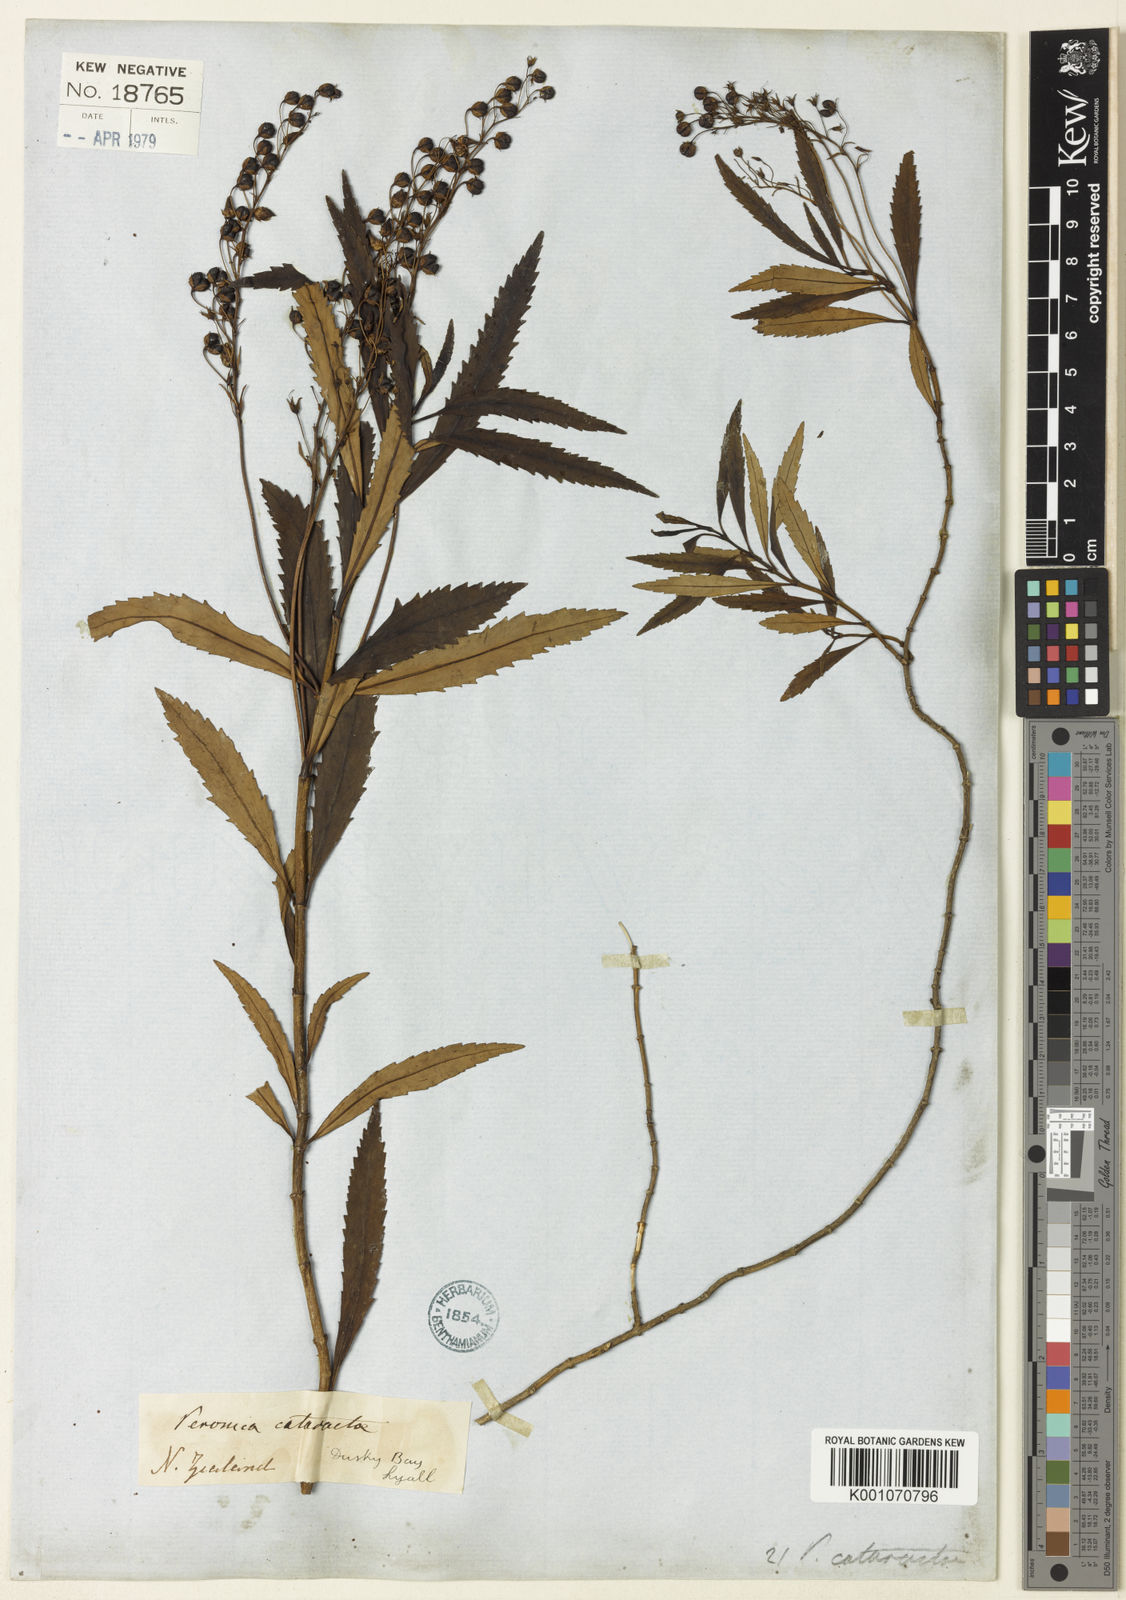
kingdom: Plantae
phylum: Tracheophyta
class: Magnoliopsida
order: Lamiales
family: Plantaginaceae
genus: Veronica
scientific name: Veronica catarractae
